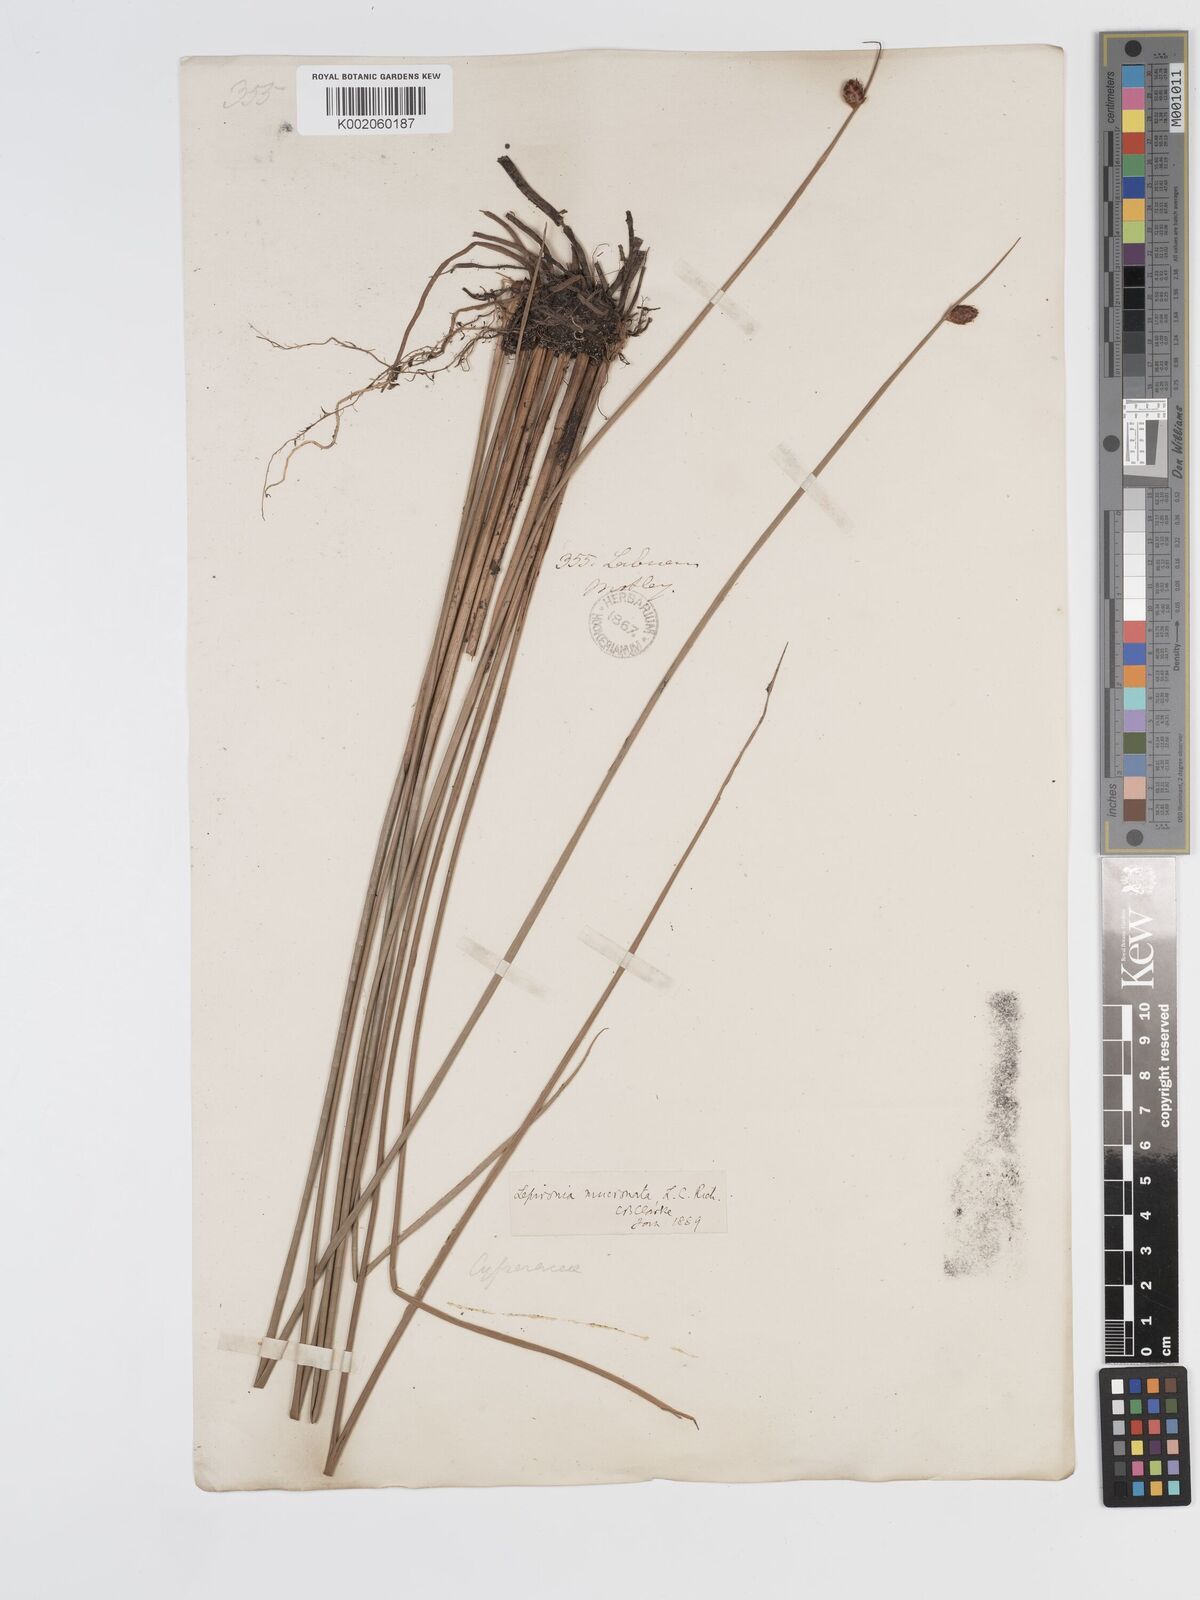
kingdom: Plantae
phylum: Tracheophyta
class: Liliopsida
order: Poales
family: Cyperaceae
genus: Lepironia
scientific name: Lepironia articulata
